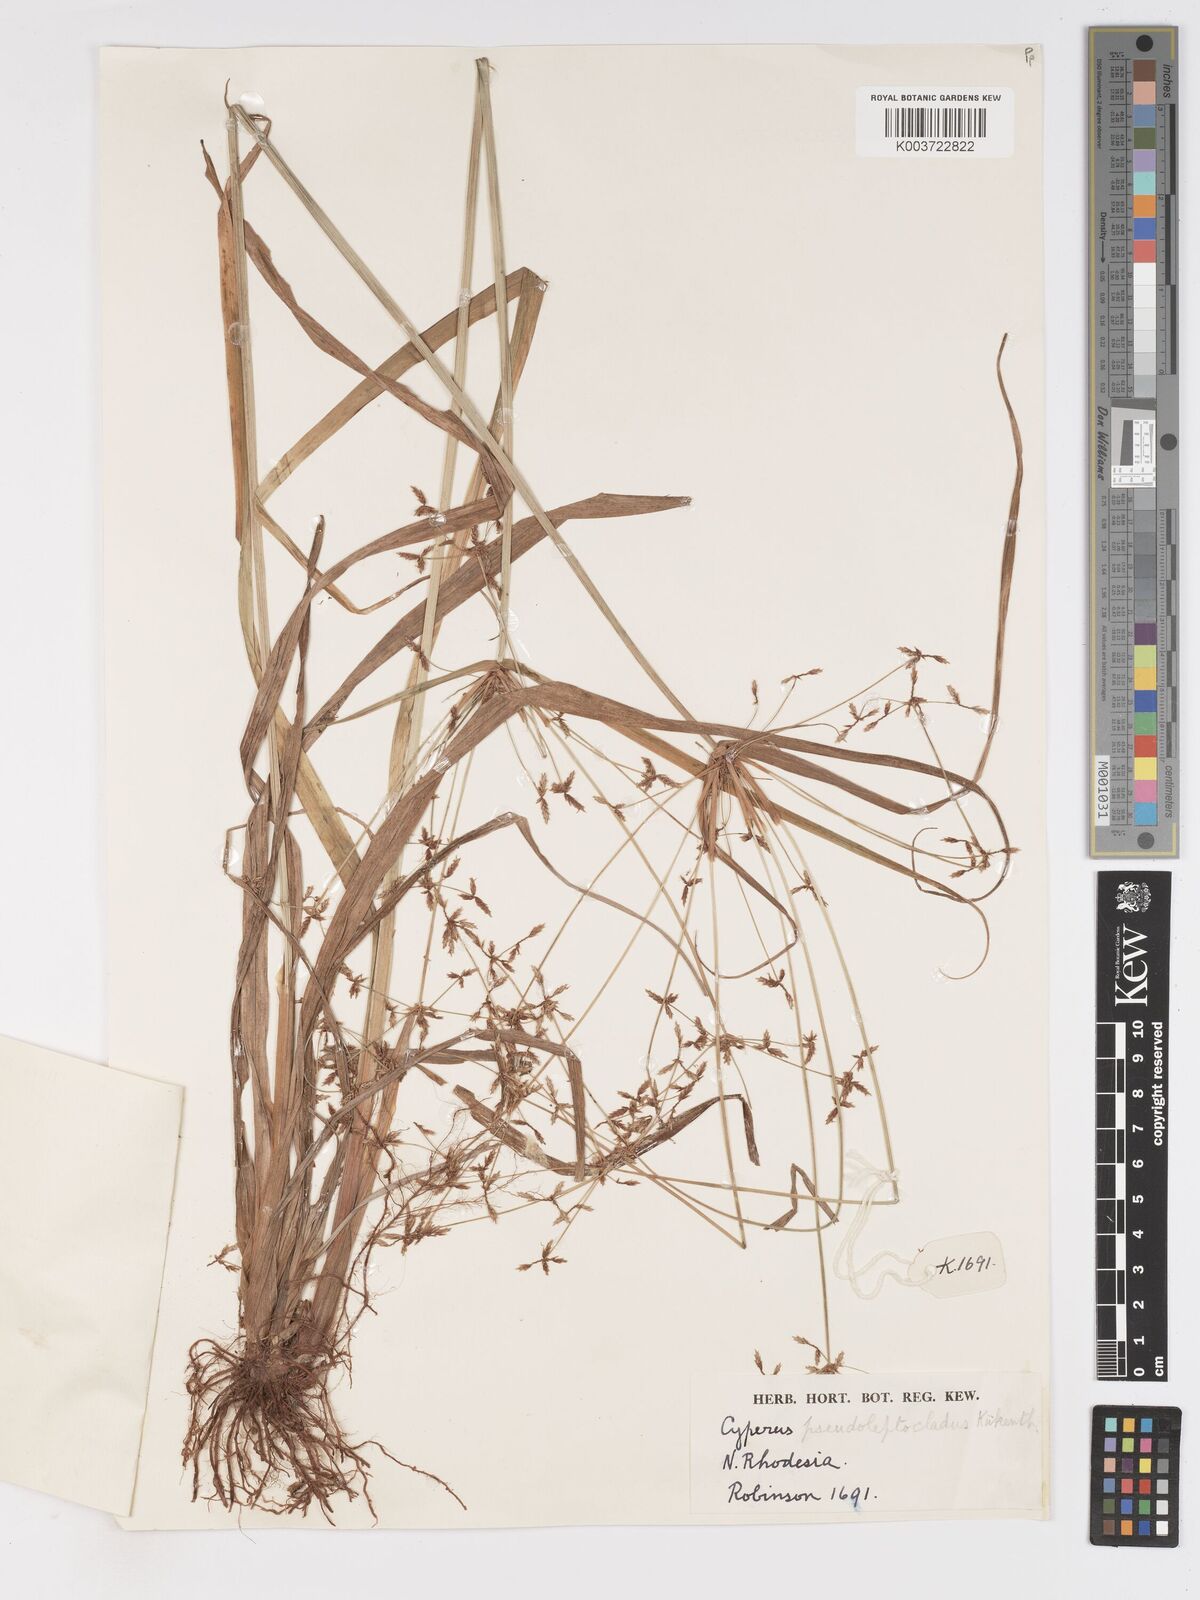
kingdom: Plantae
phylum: Tracheophyta
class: Liliopsida
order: Poales
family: Cyperaceae
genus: Cyperus
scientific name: Cyperus glaucophyllus
